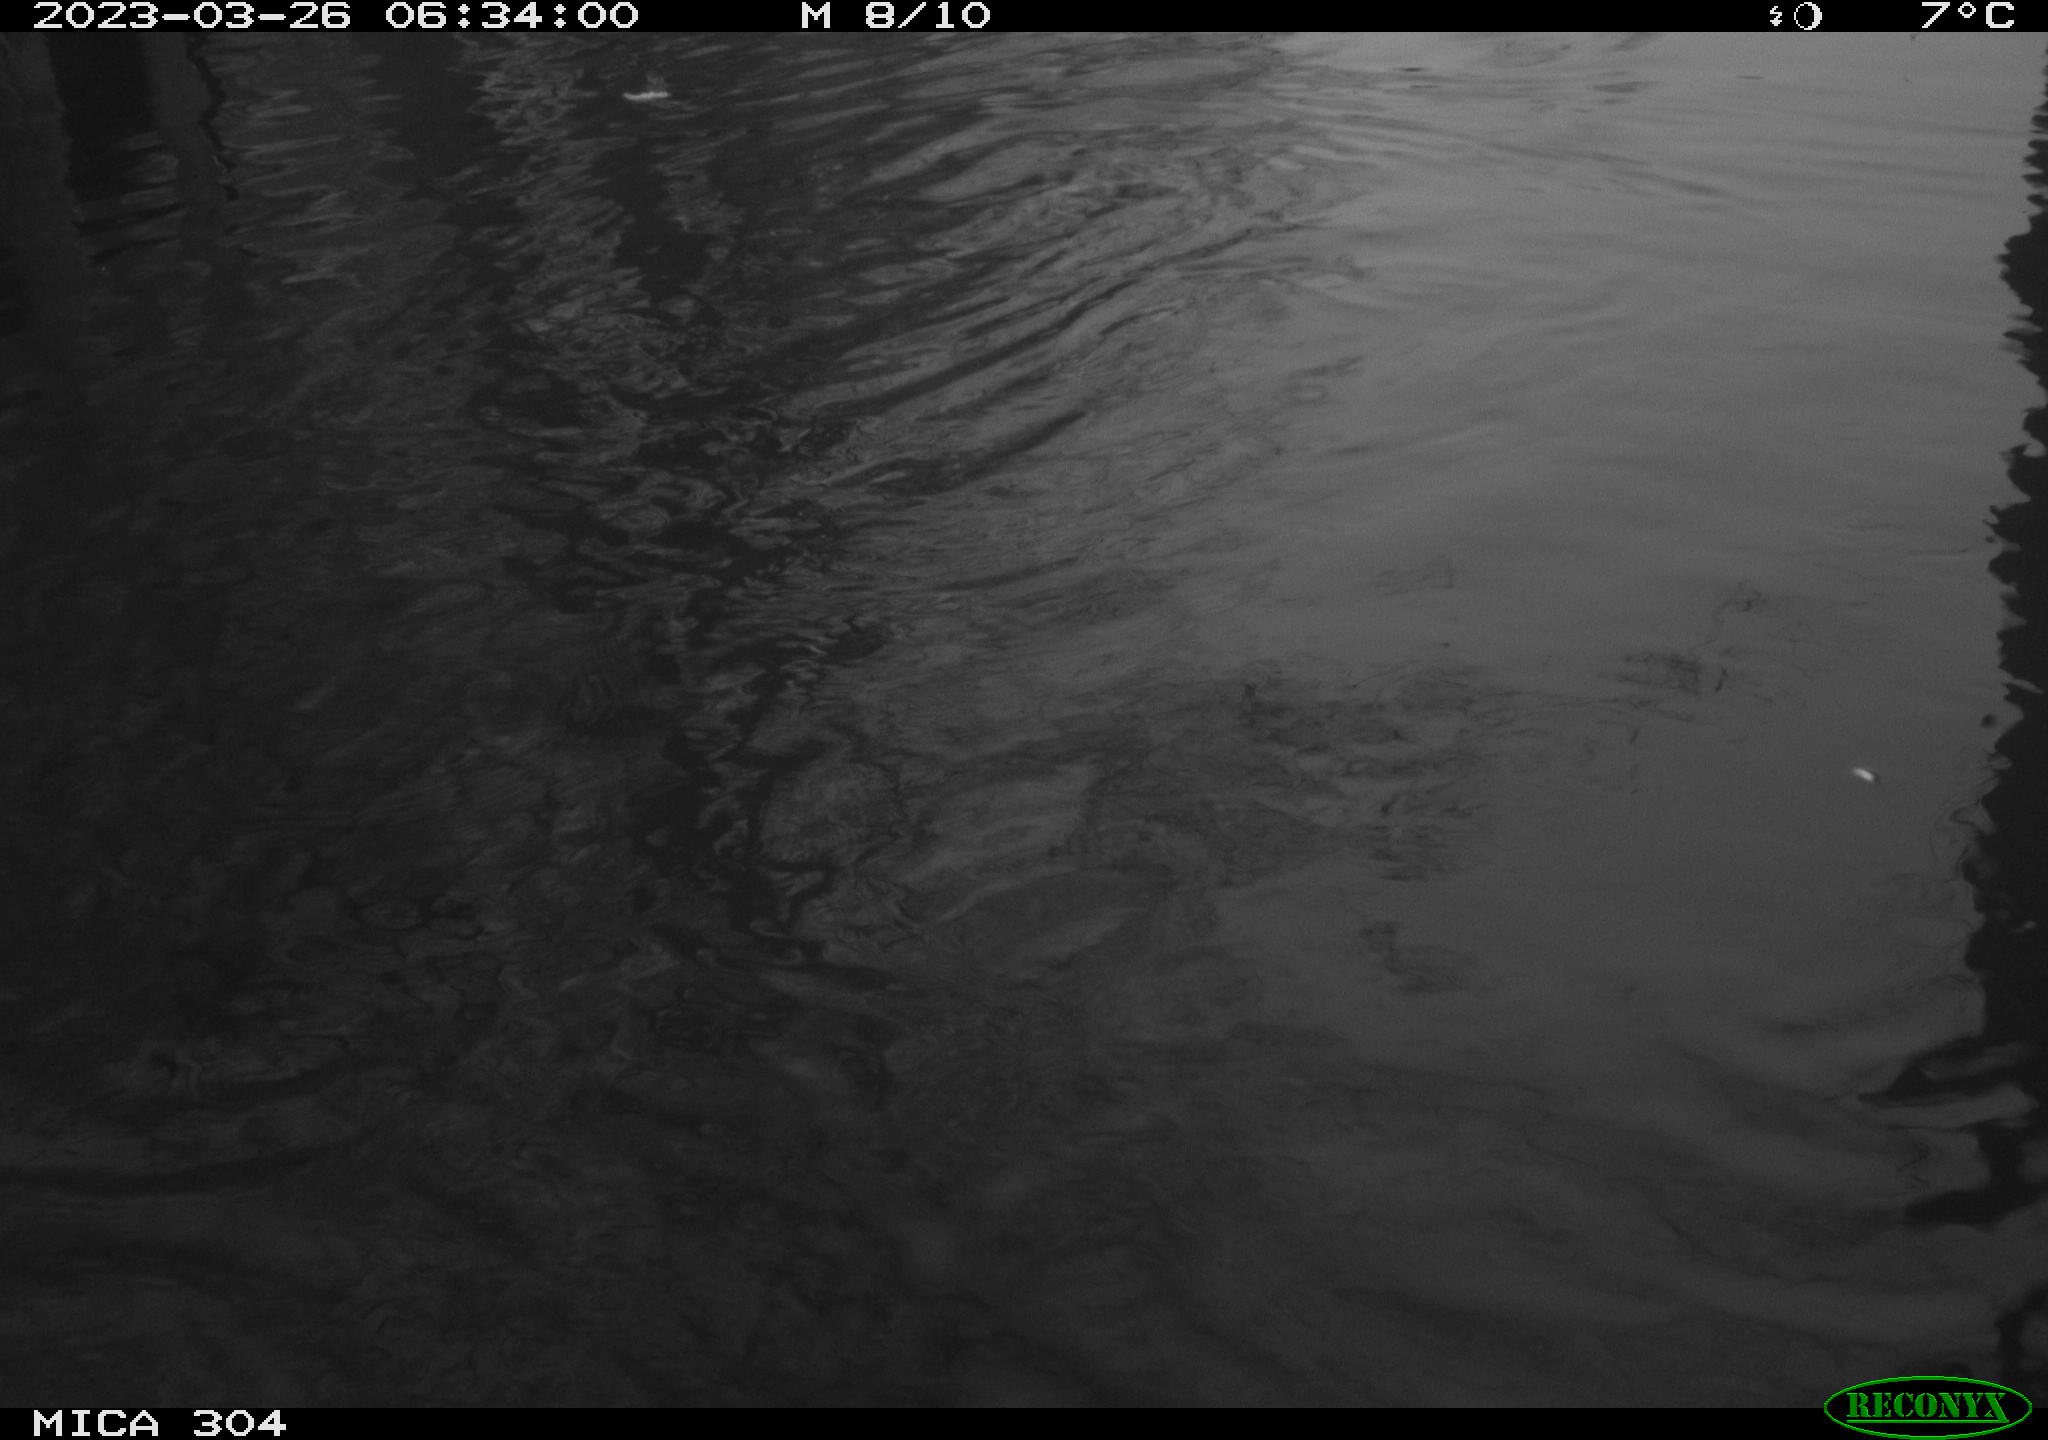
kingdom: Animalia
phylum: Chordata
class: Aves
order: Anseriformes
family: Anatidae
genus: Anas
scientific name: Anas
